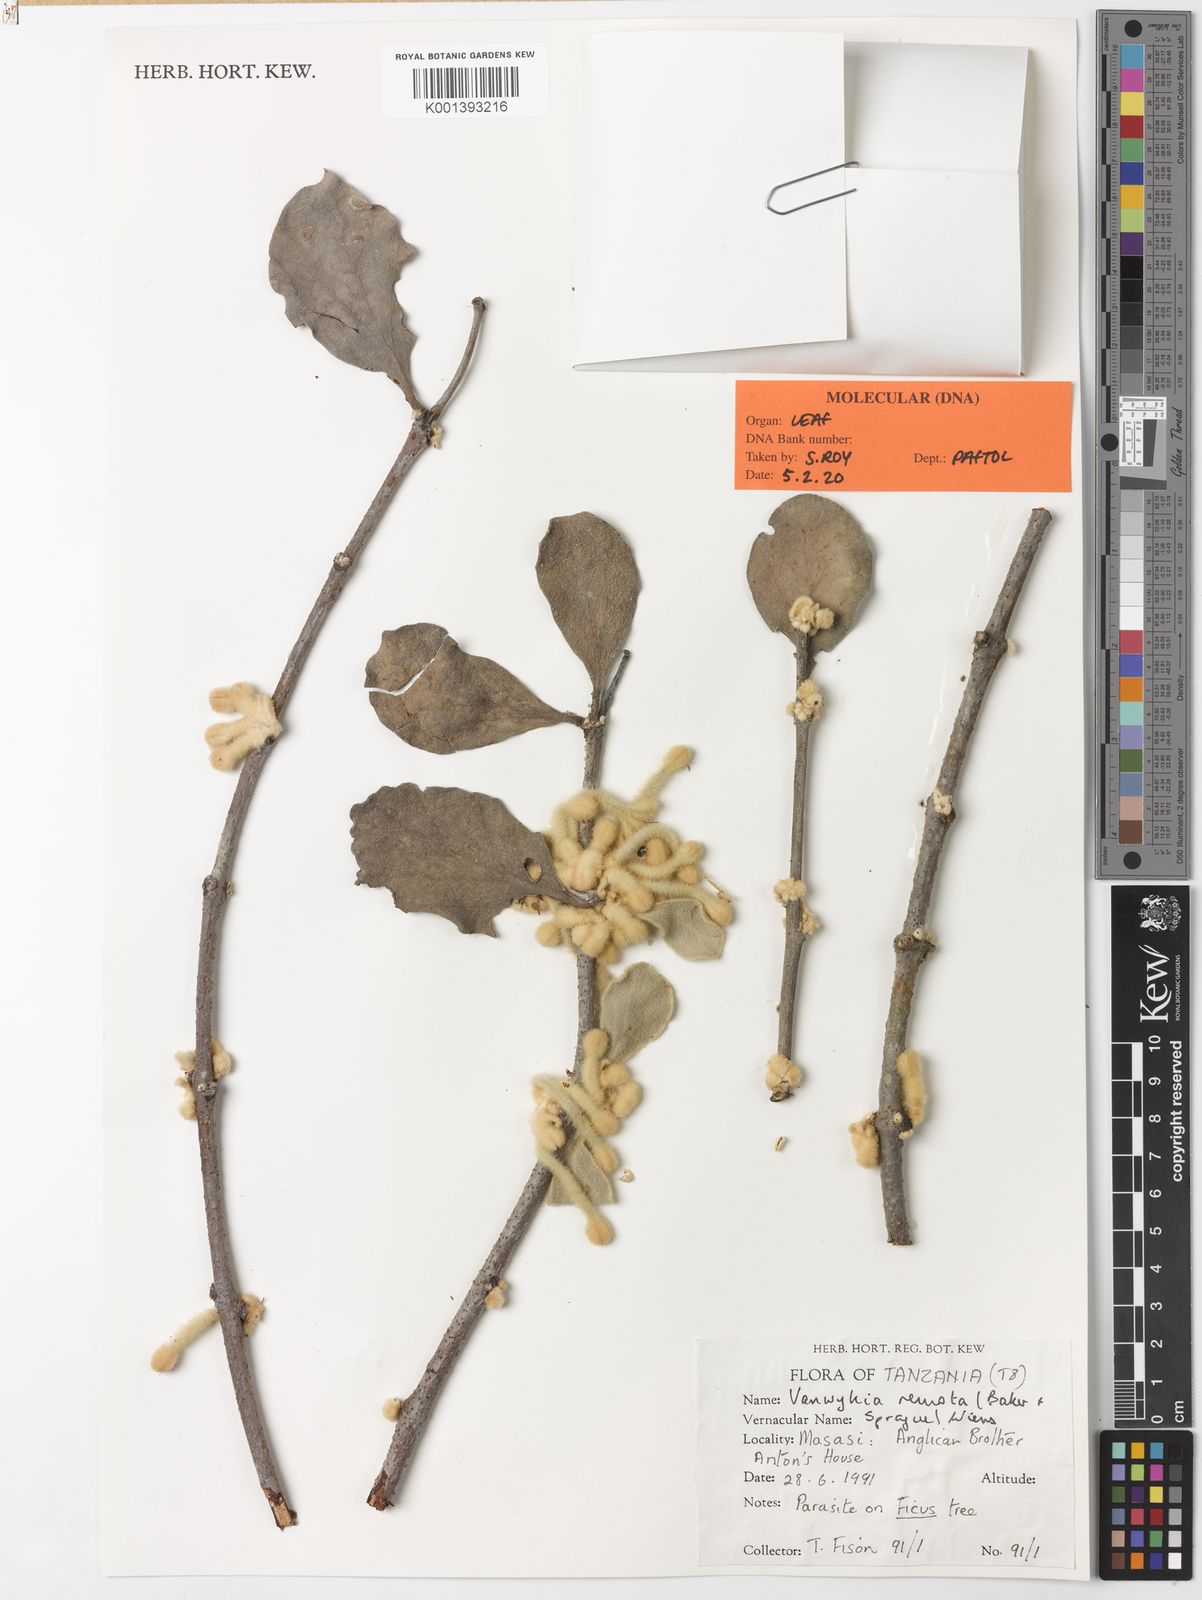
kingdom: Plantae
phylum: Tracheophyta
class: Magnoliopsida
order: Santalales
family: Loranthaceae
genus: Vanwykia
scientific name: Vanwykia remota
